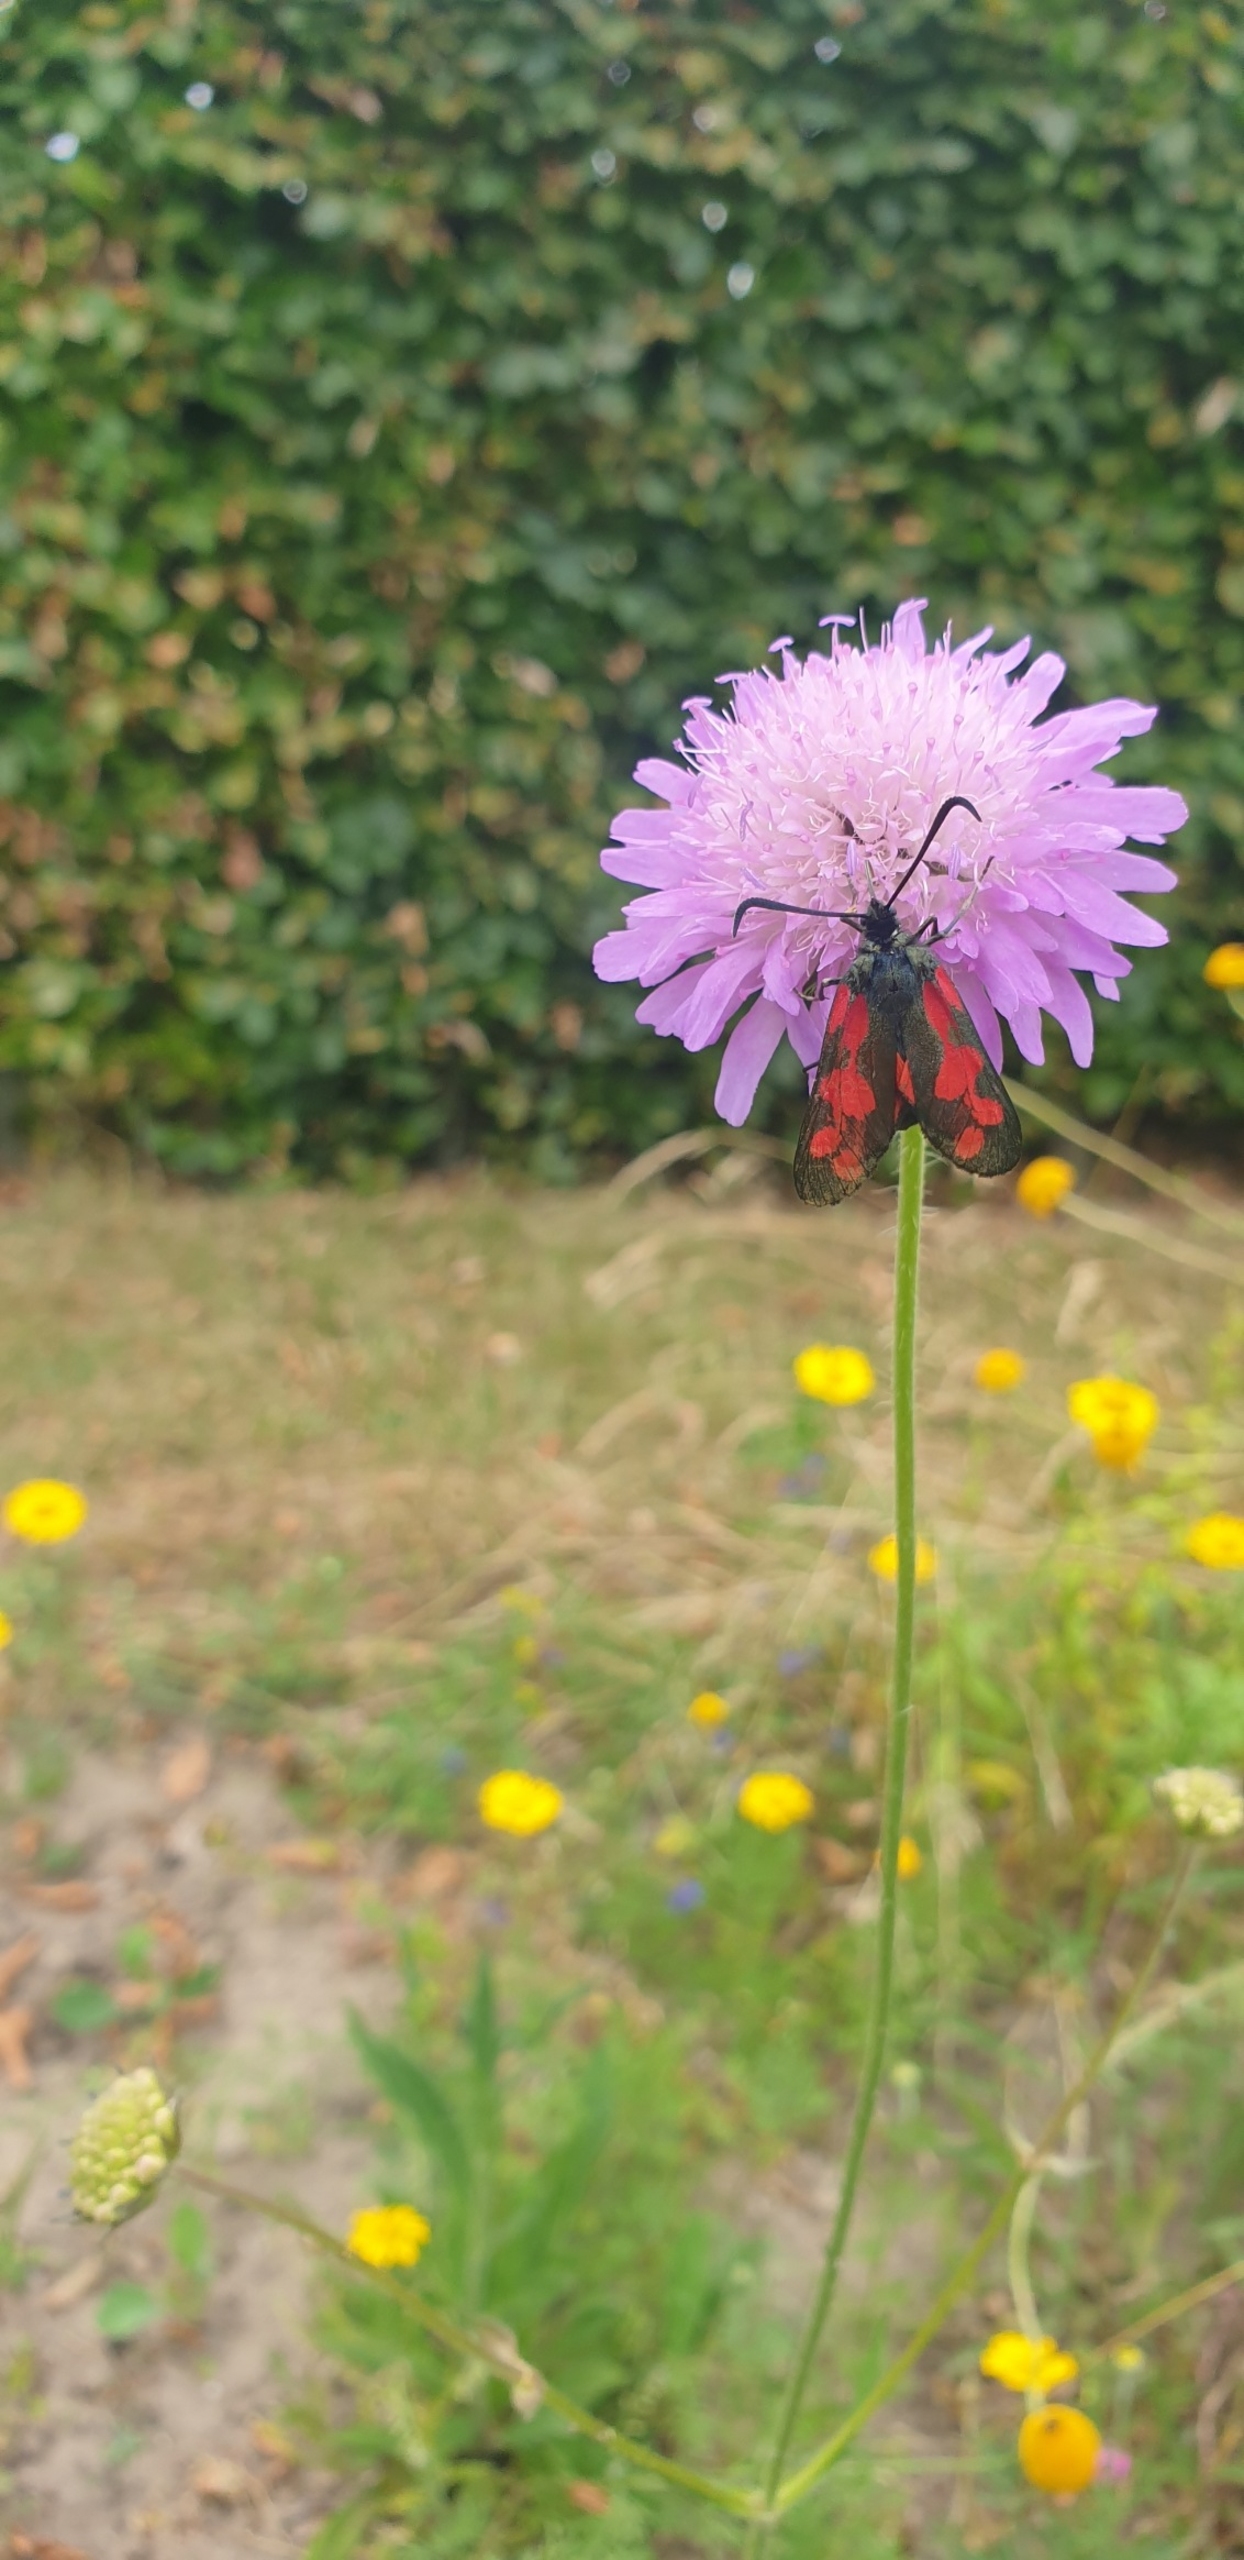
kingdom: Animalia
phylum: Arthropoda
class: Insecta
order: Lepidoptera
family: Zygaenidae
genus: Zygaena
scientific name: Zygaena filipendulae
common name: Seksplettet køllesværmer
